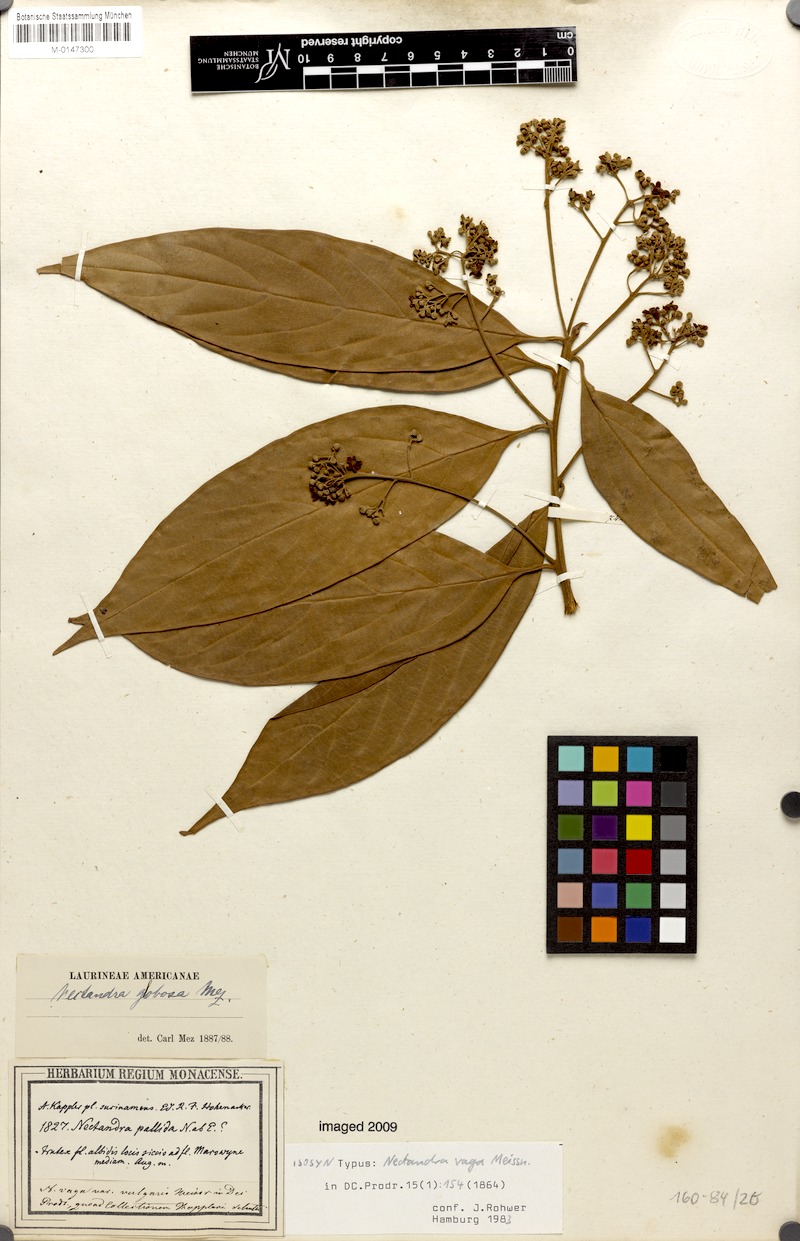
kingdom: Plantae
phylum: Tracheophyta
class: Magnoliopsida
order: Laurales
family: Lauraceae
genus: Nectandra
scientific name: Nectandra globosa
